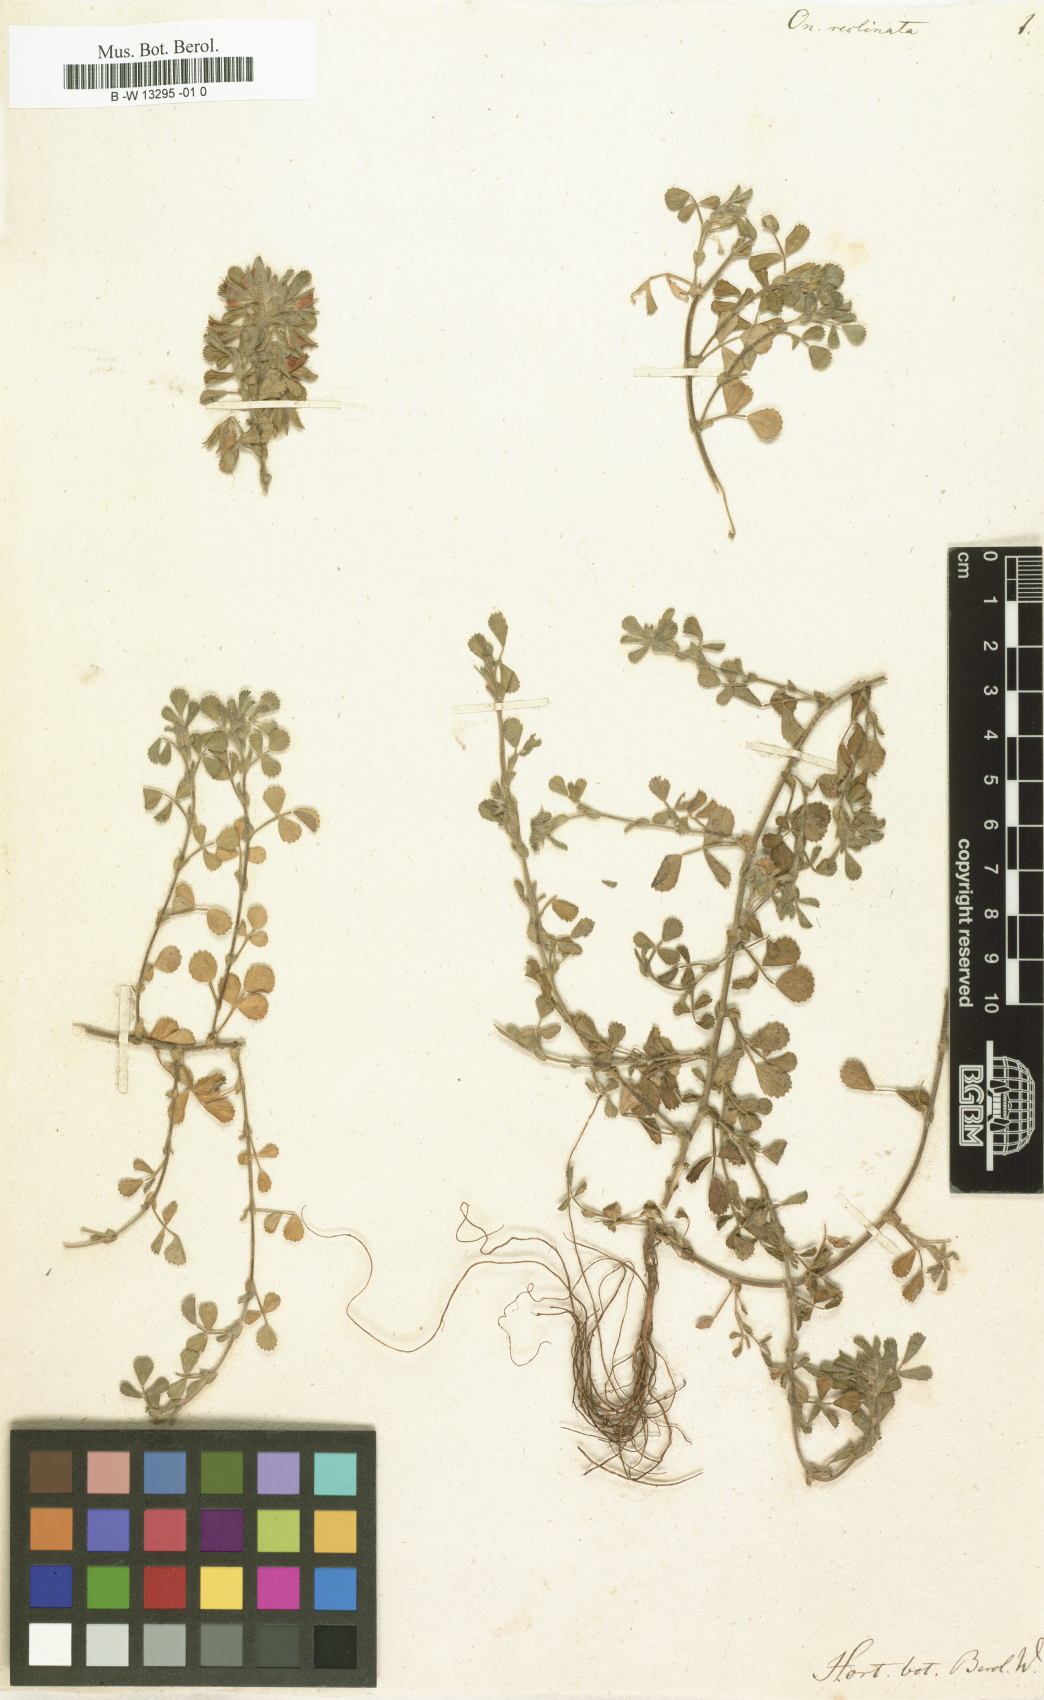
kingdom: Plantae
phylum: Tracheophyta
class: Magnoliopsida
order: Fabales
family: Fabaceae
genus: Ononis
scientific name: Ononis reclinata
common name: Small restharrow
